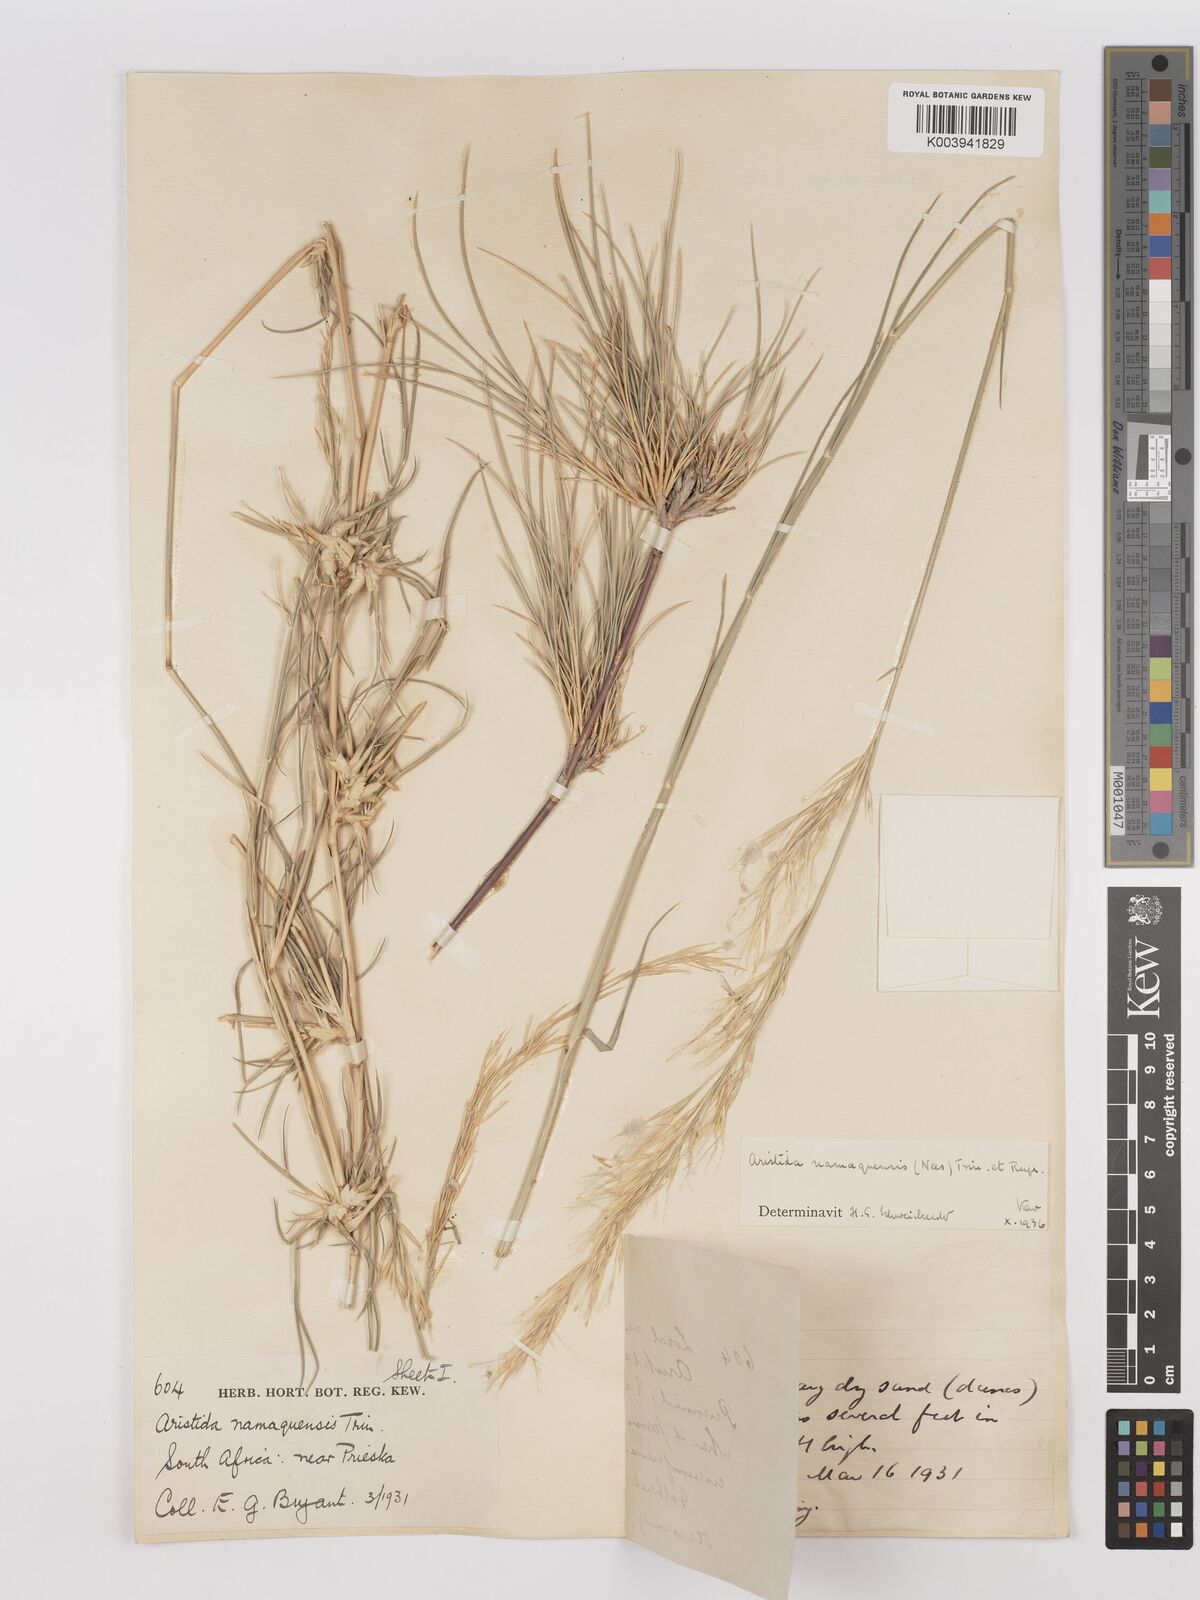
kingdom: Plantae
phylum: Tracheophyta
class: Liliopsida
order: Poales
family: Poaceae
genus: Stipagrostis
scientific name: Stipagrostis namaquensis
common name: River bushman grass
